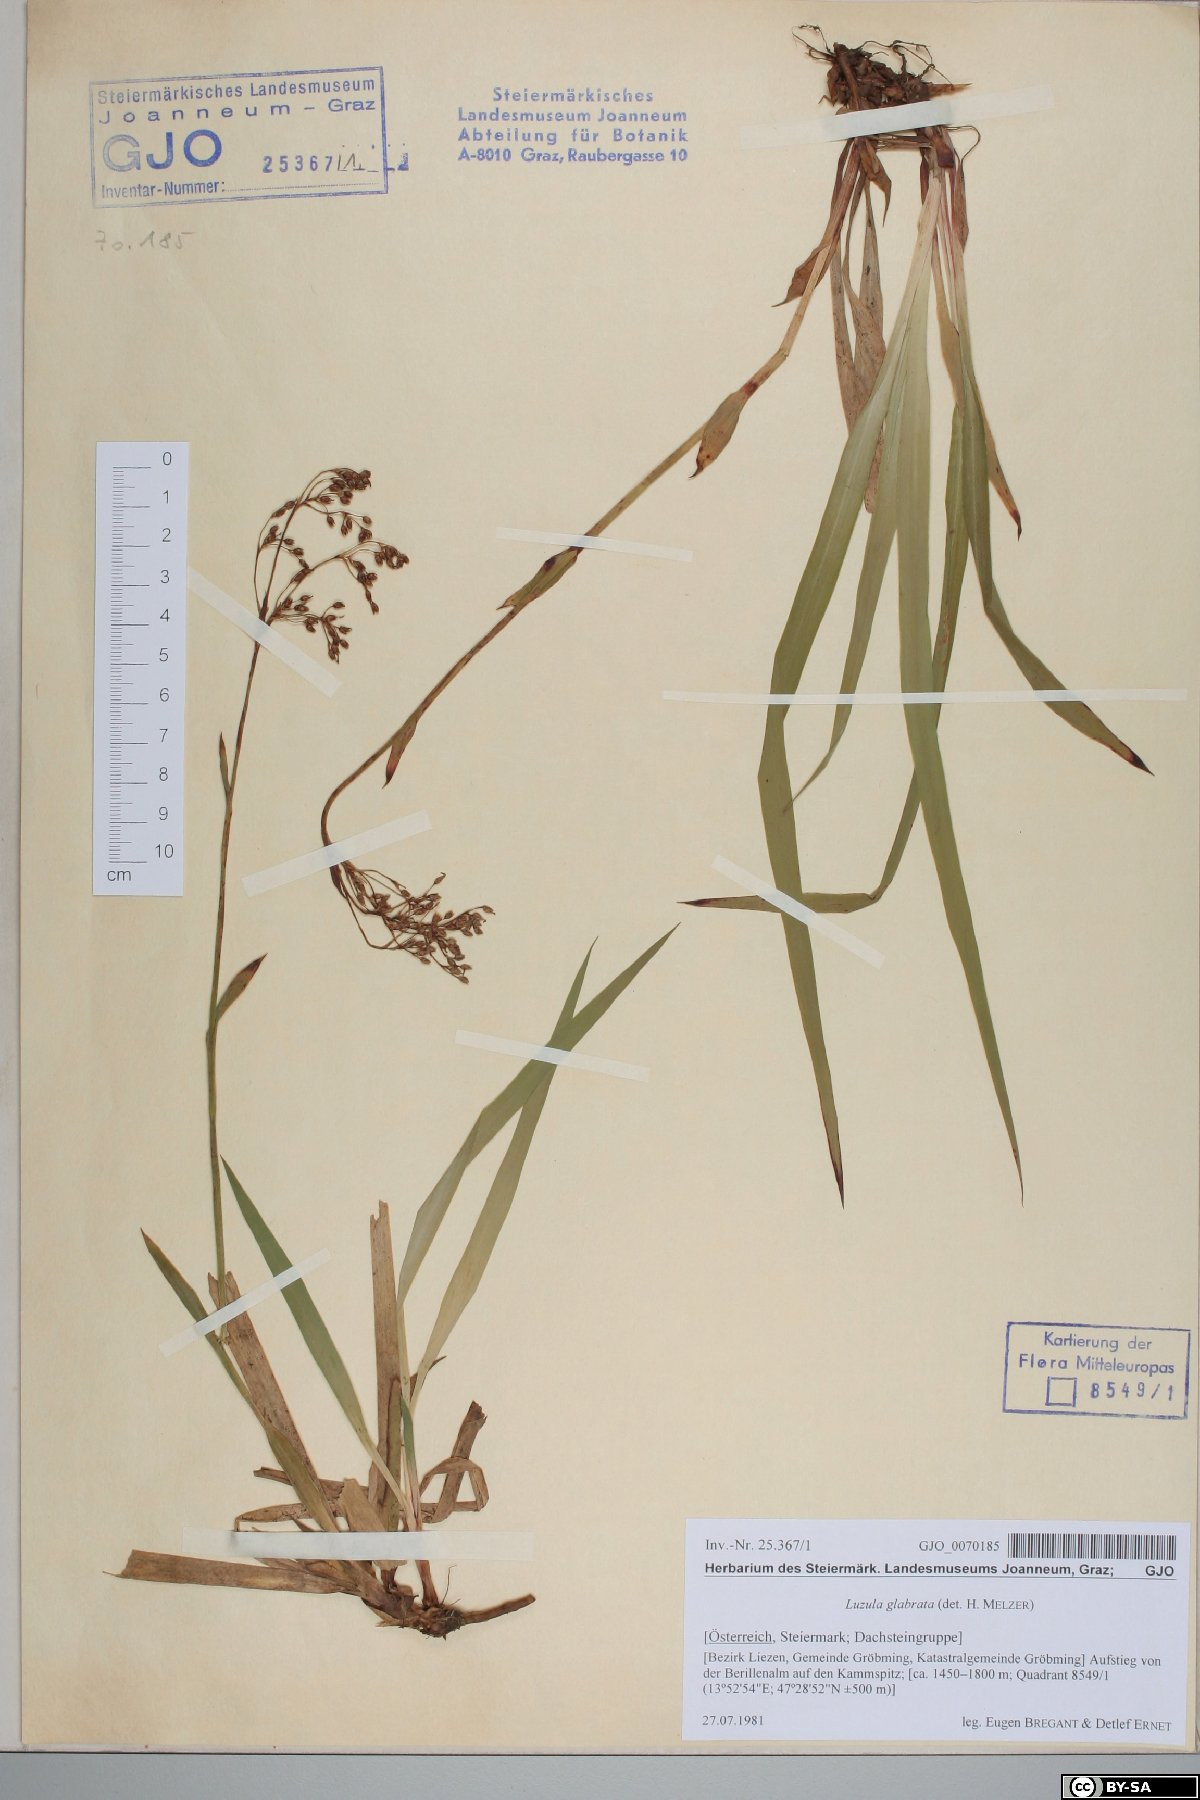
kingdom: Plantae
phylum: Tracheophyta
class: Liliopsida
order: Poales
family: Juncaceae
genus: Luzula
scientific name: Luzula glabrata
